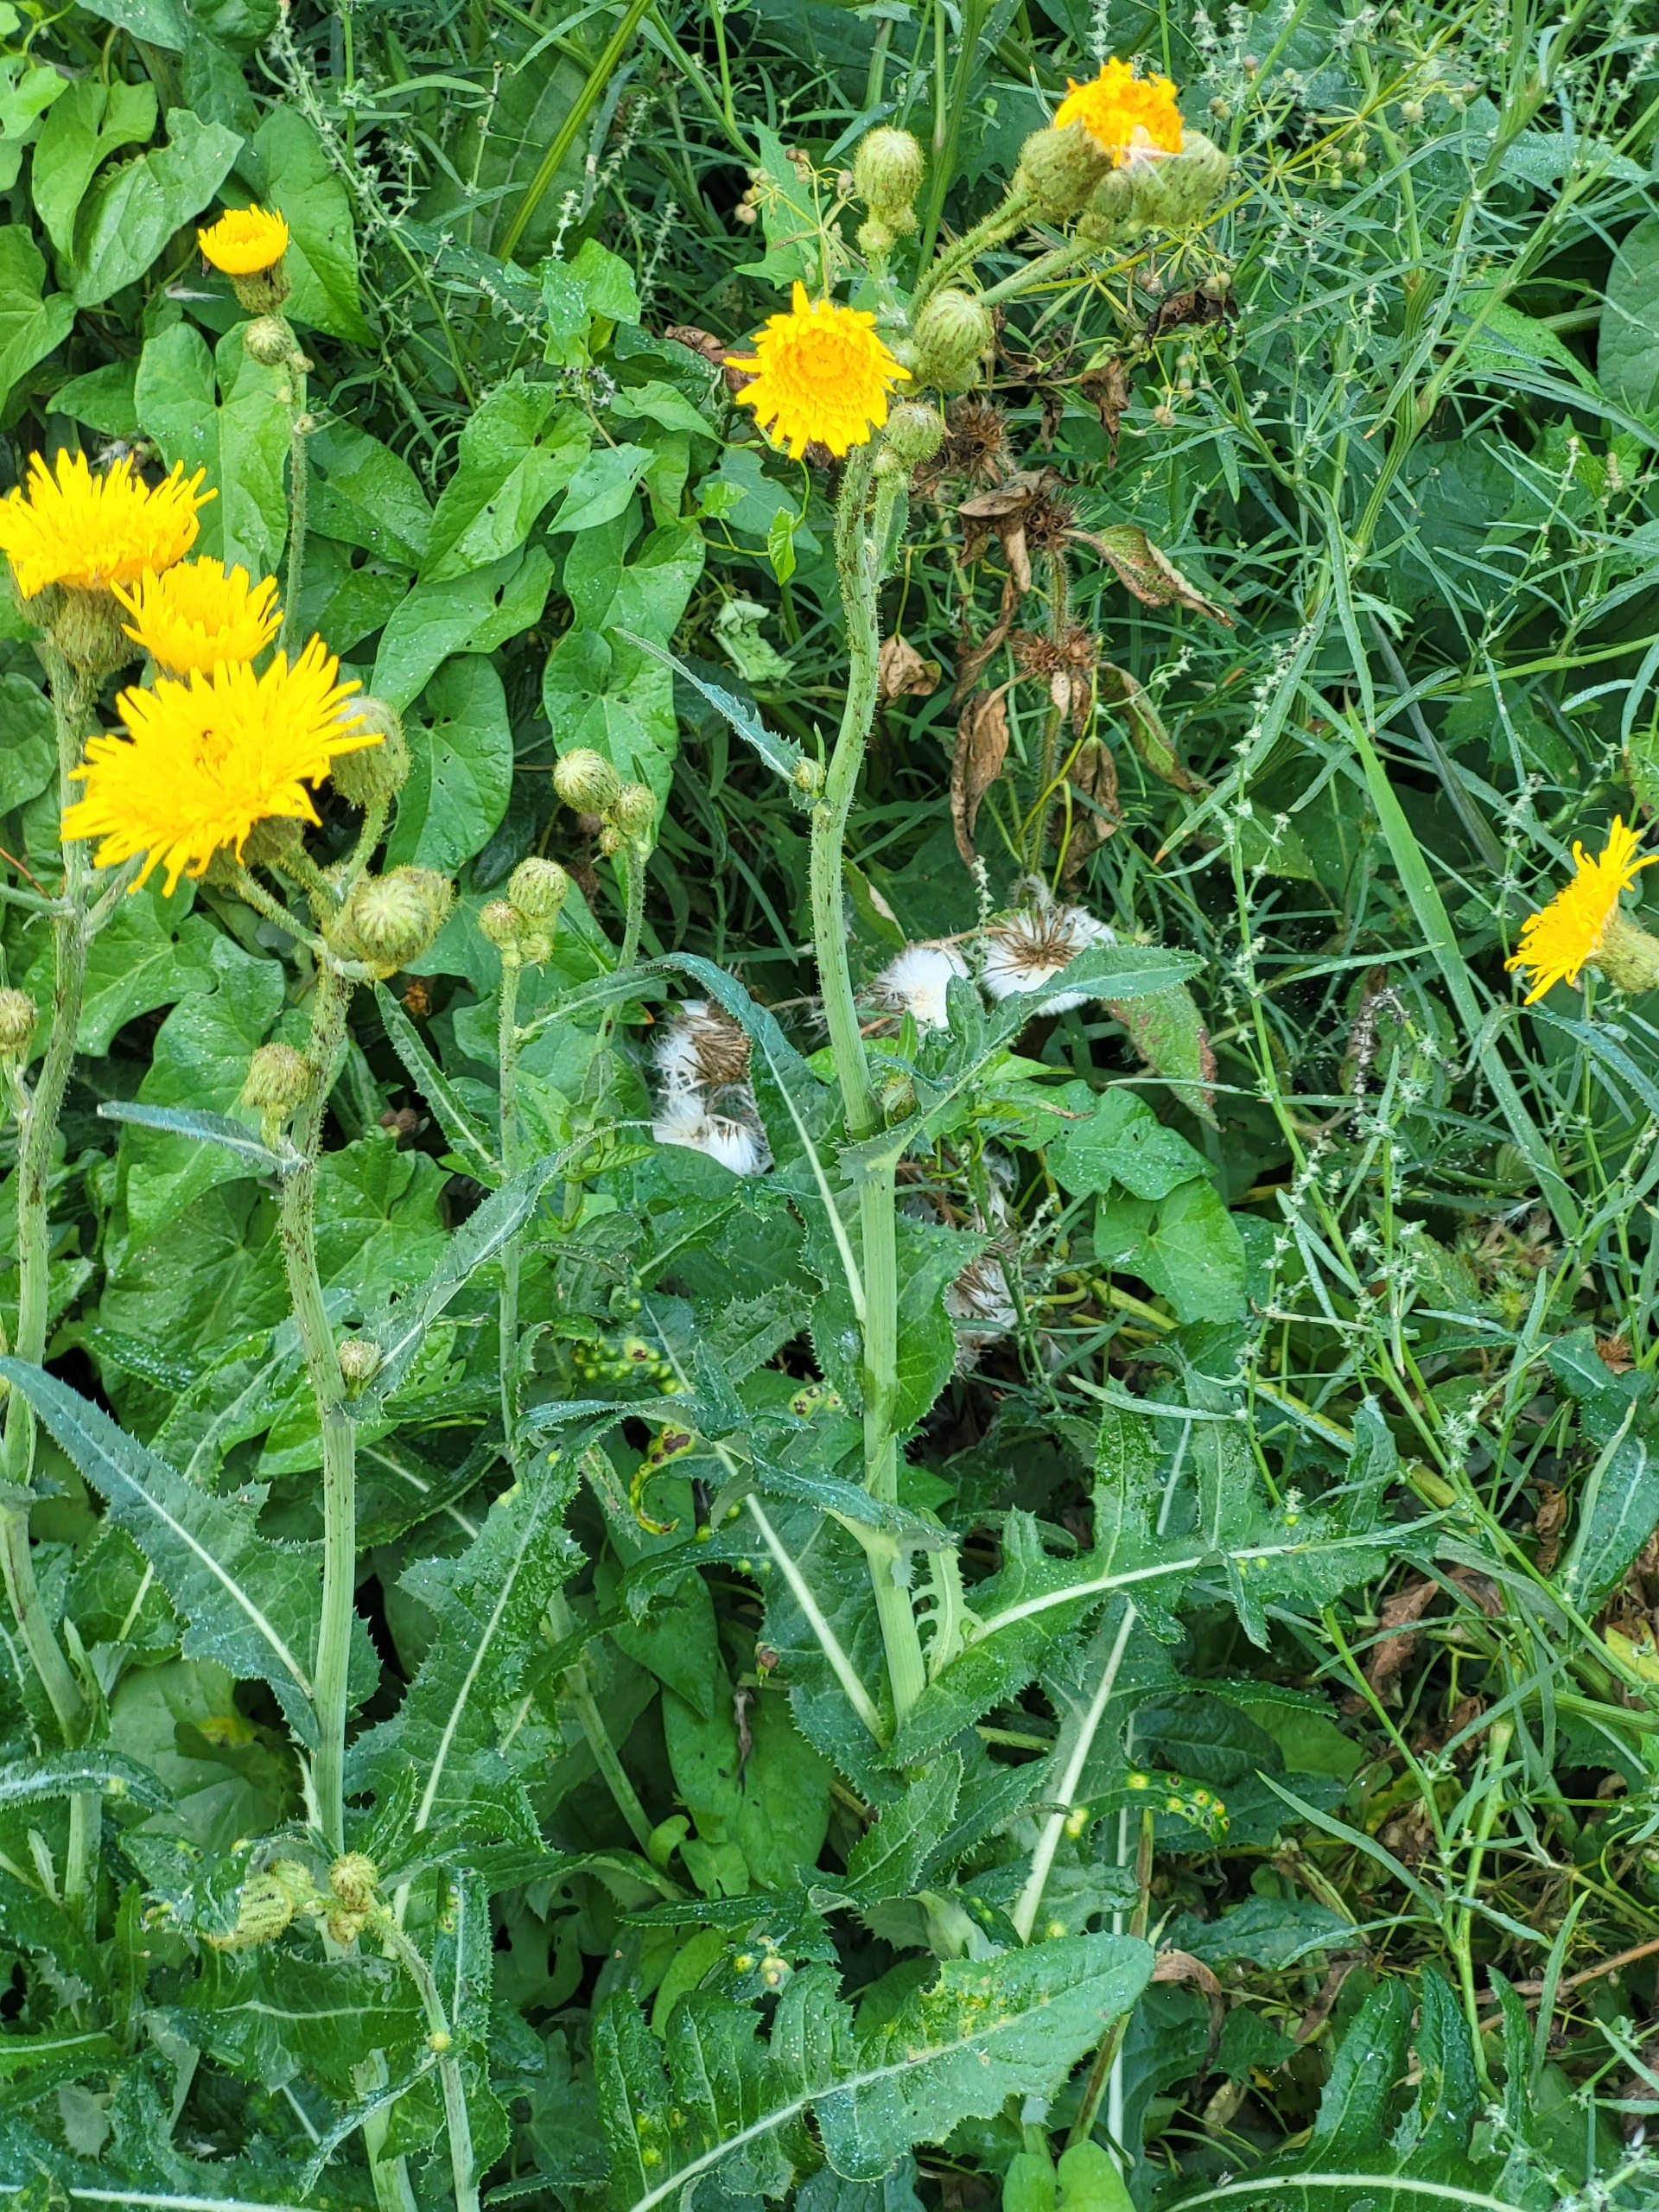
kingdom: Plantae
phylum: Tracheophyta
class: Magnoliopsida
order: Asterales
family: Asteraceae
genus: Sonchus
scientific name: Sonchus arvensis
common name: Ager-svinemælk
